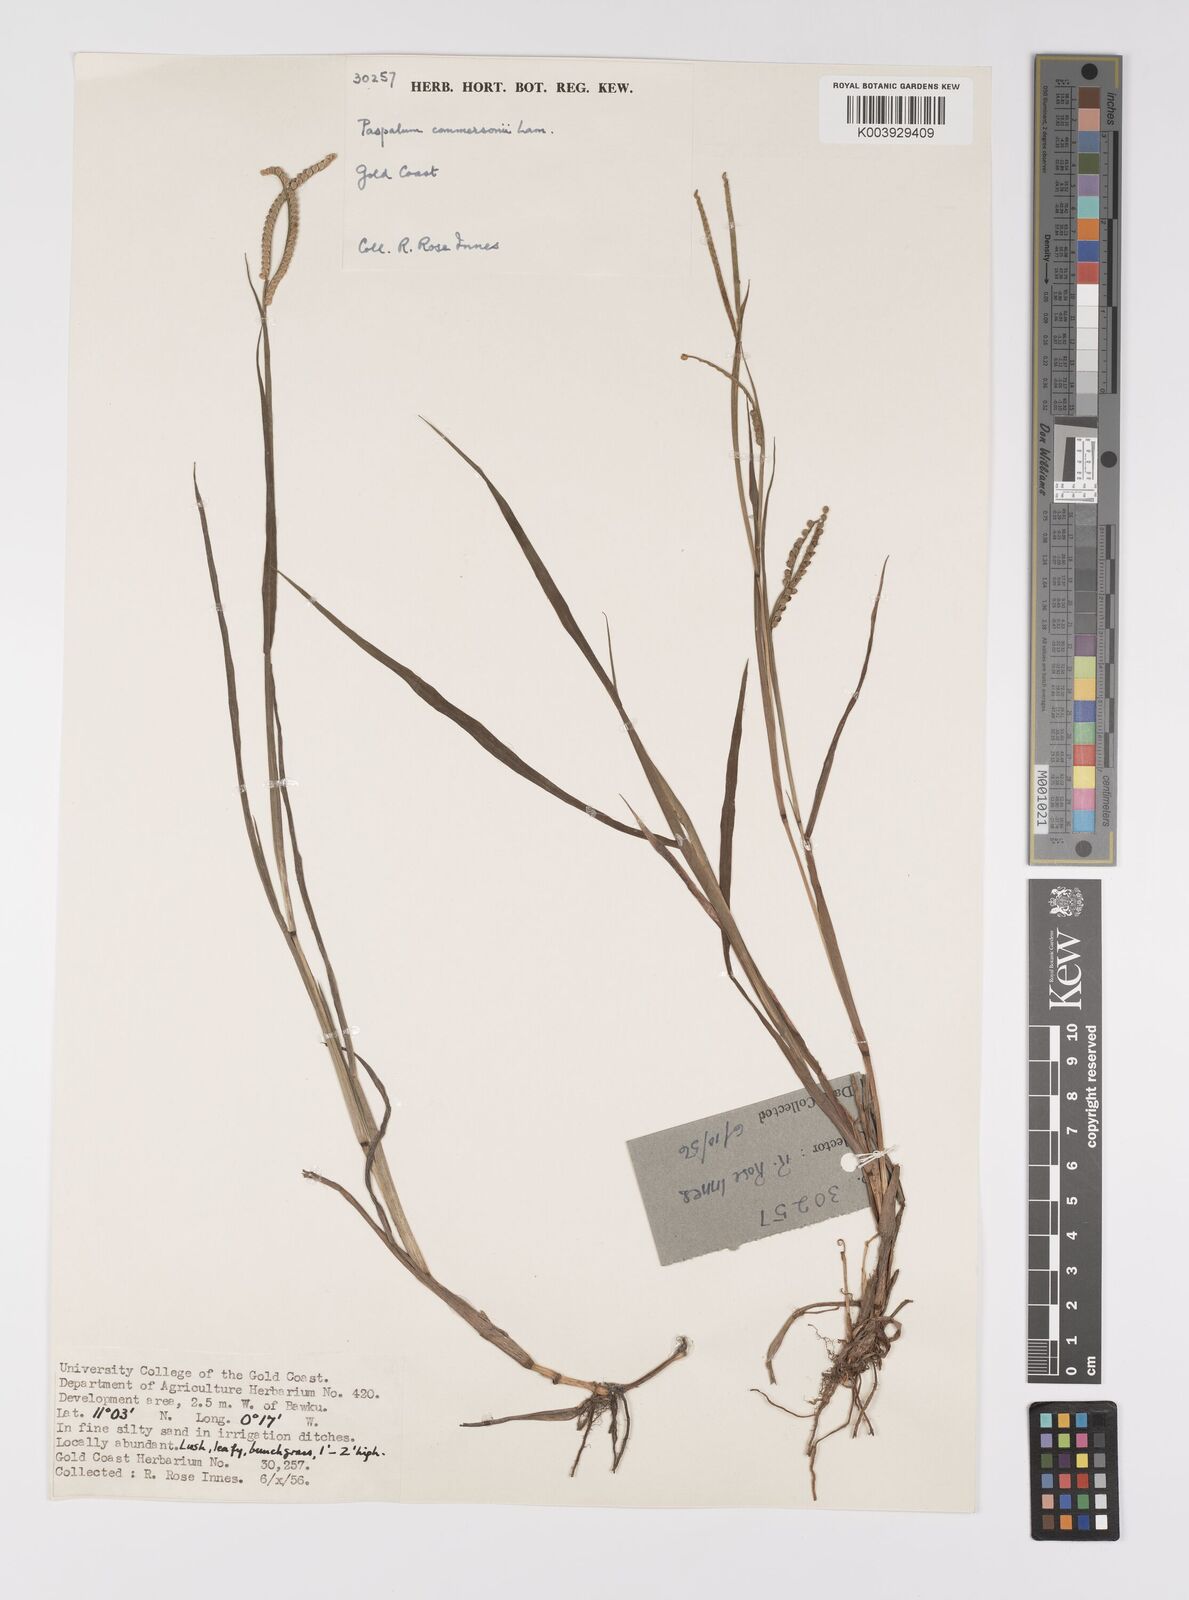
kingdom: Plantae
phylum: Tracheophyta
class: Liliopsida
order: Poales
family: Poaceae
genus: Paspalum
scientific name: Paspalum scrobiculatum
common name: Kodo millet
